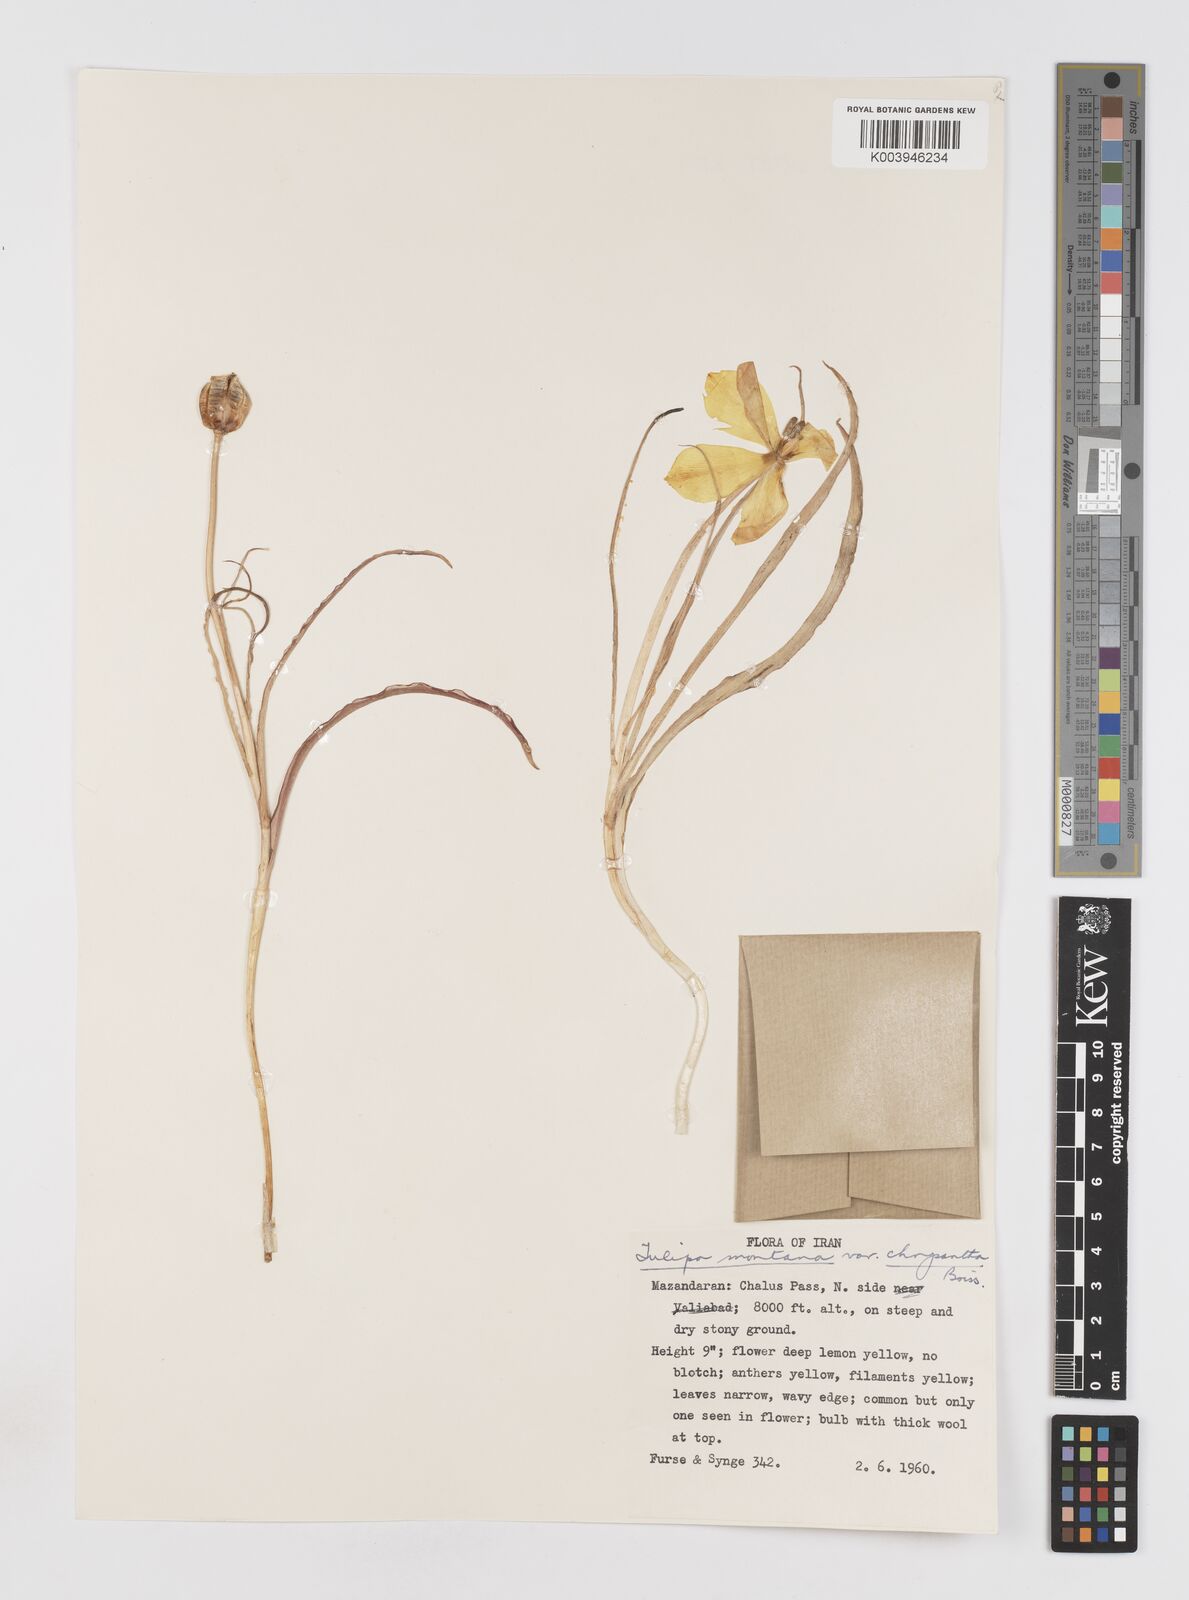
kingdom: Plantae
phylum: Tracheophyta
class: Liliopsida
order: Liliales
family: Liliaceae
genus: Tulipa
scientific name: Tulipa montana
